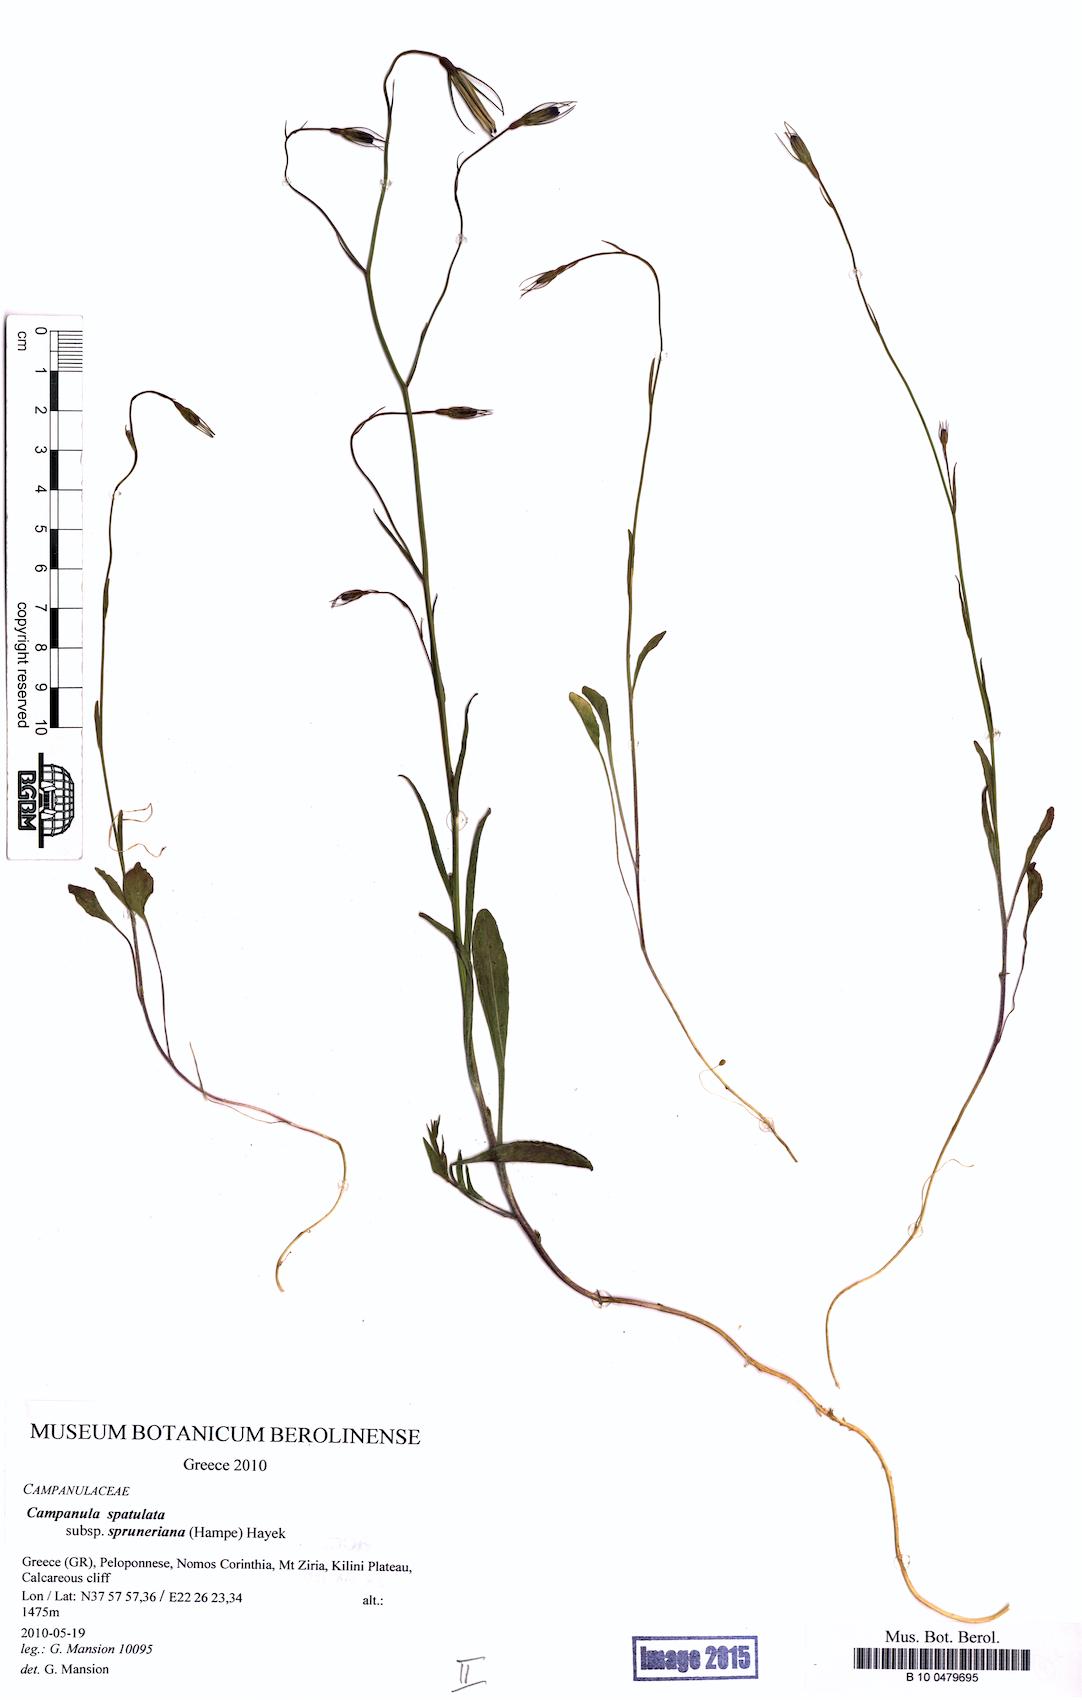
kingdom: Plantae
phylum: Tracheophyta
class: Magnoliopsida
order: Asterales
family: Campanulaceae
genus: Campanula
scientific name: Campanula spatulata
